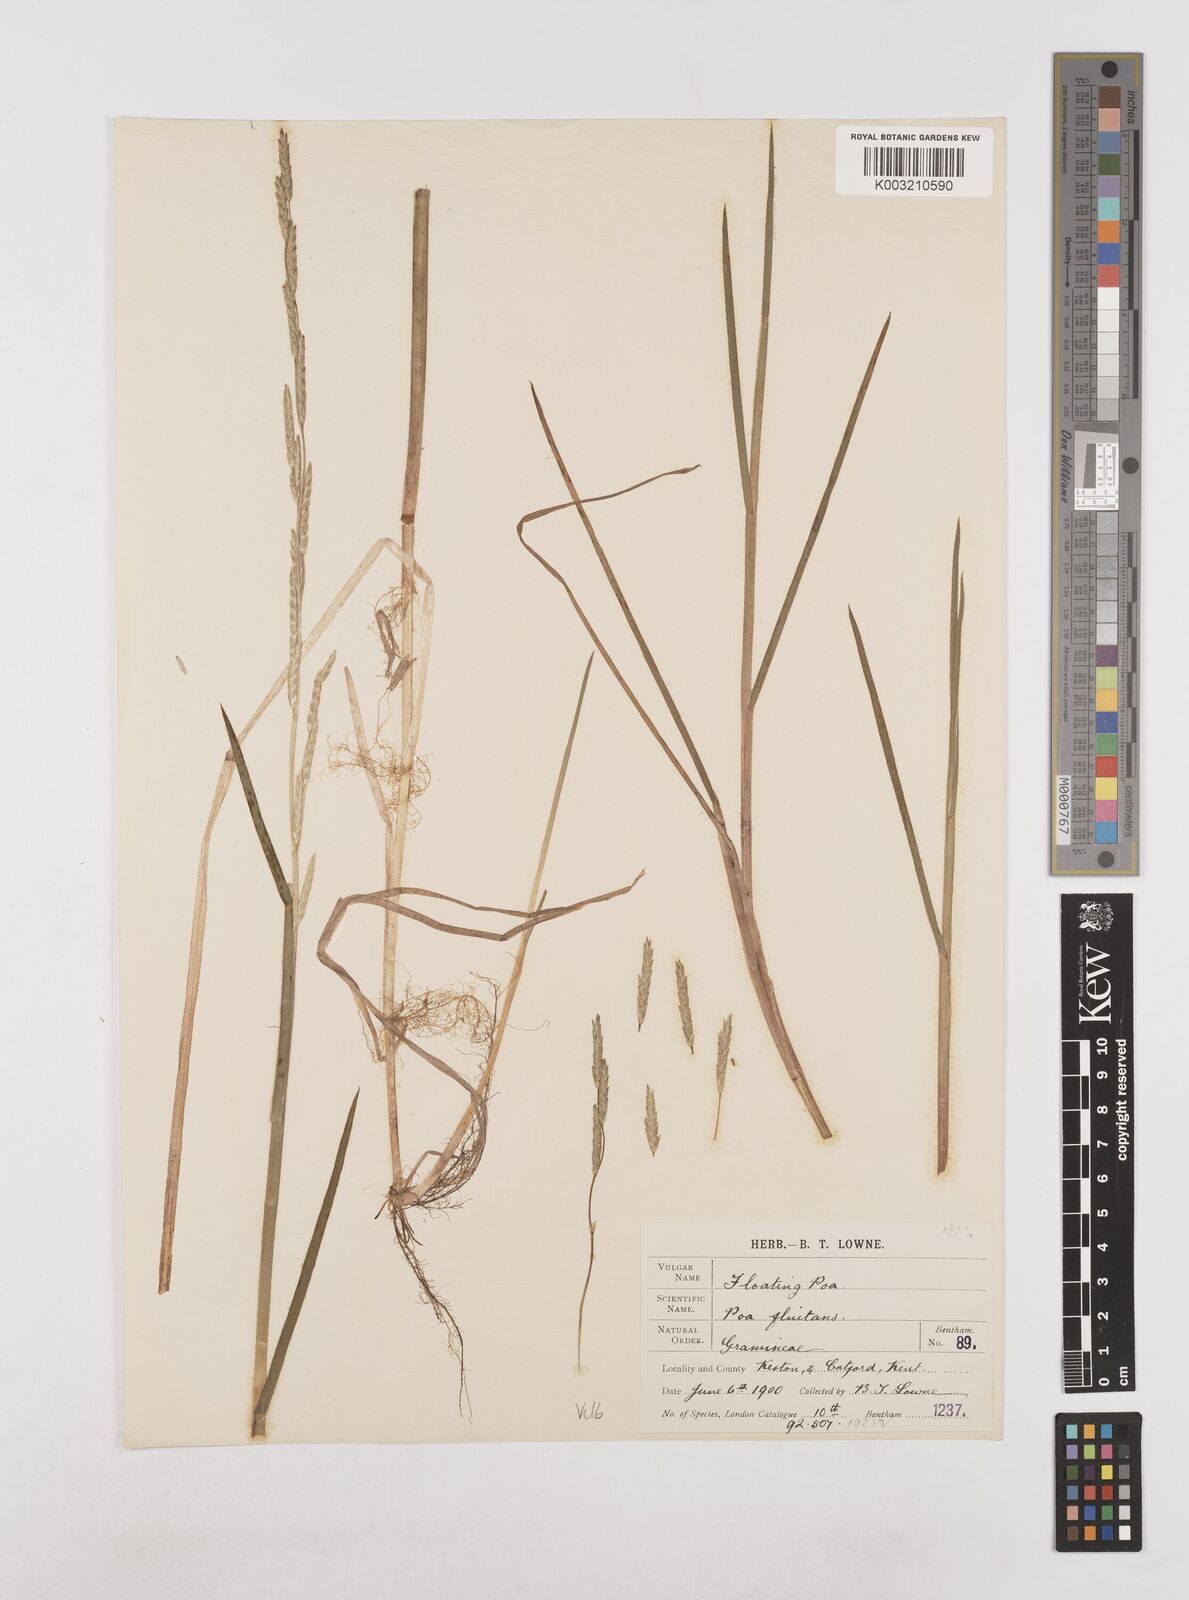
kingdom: Plantae
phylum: Tracheophyta
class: Liliopsida
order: Poales
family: Poaceae
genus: Glyceria
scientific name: Glyceria fluitans
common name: Floating sweet-grass
